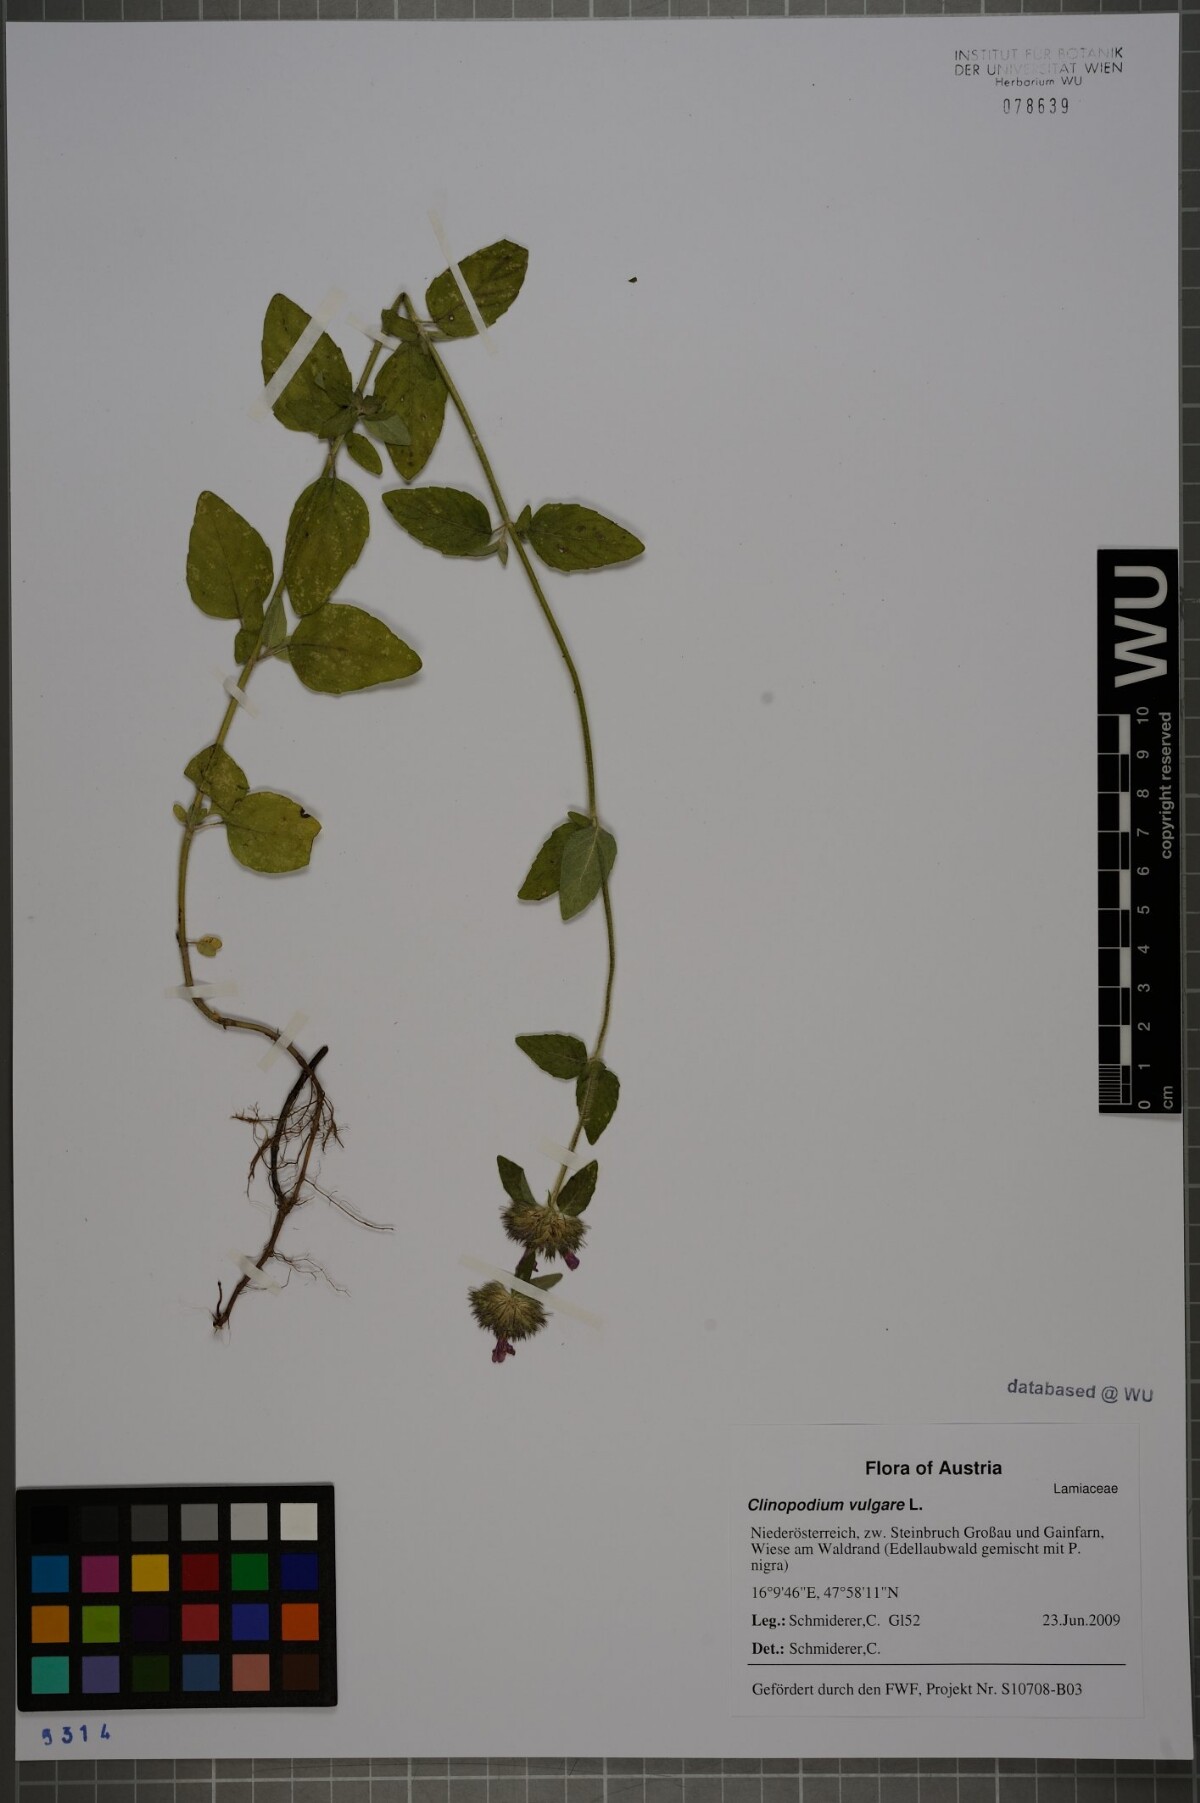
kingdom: Plantae
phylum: Tracheophyta
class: Magnoliopsida
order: Lamiales
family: Lamiaceae
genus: Clinopodium
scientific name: Clinopodium vulgare
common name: Wild basil
